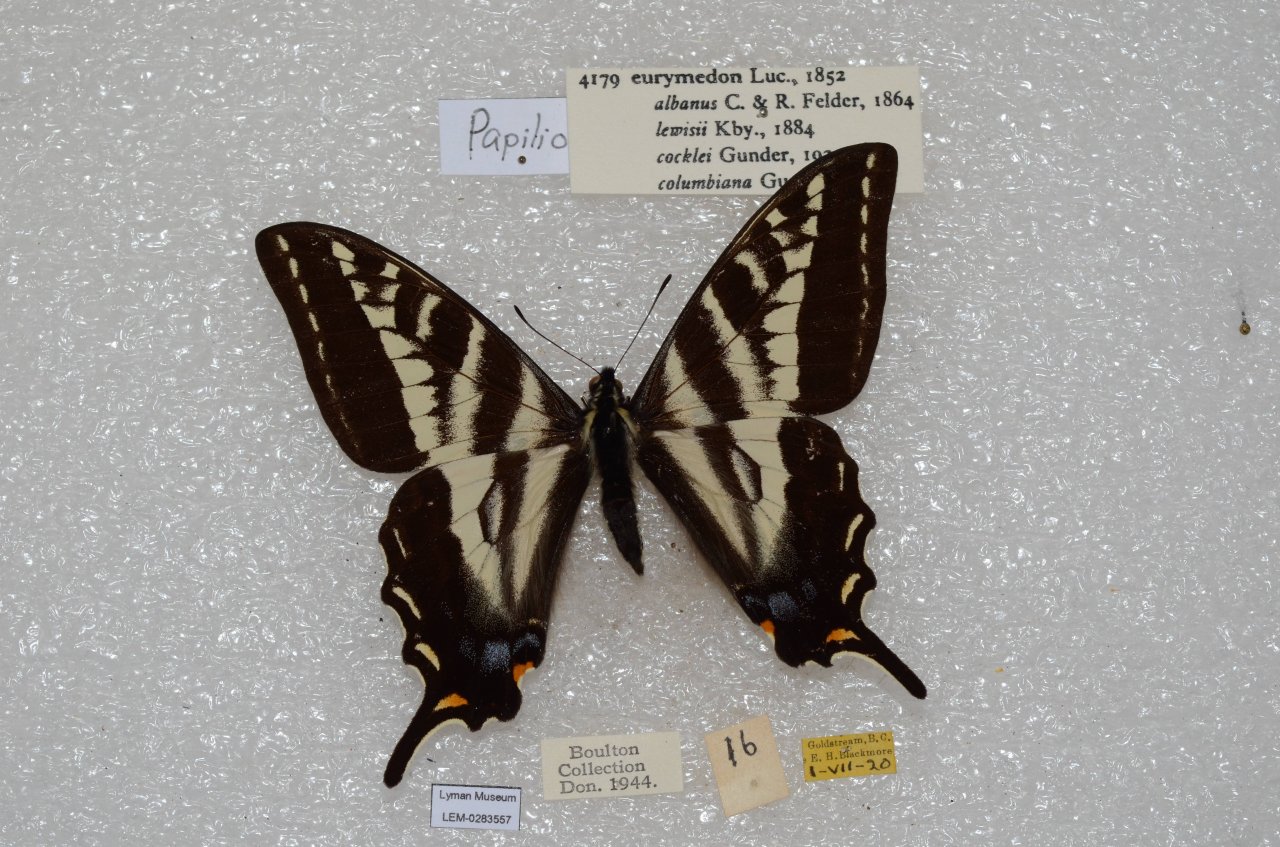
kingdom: Animalia
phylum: Arthropoda
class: Insecta
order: Lepidoptera
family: Papilionidae
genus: Pterourus
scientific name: Pterourus eurymedon
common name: Pale Swallowtail
